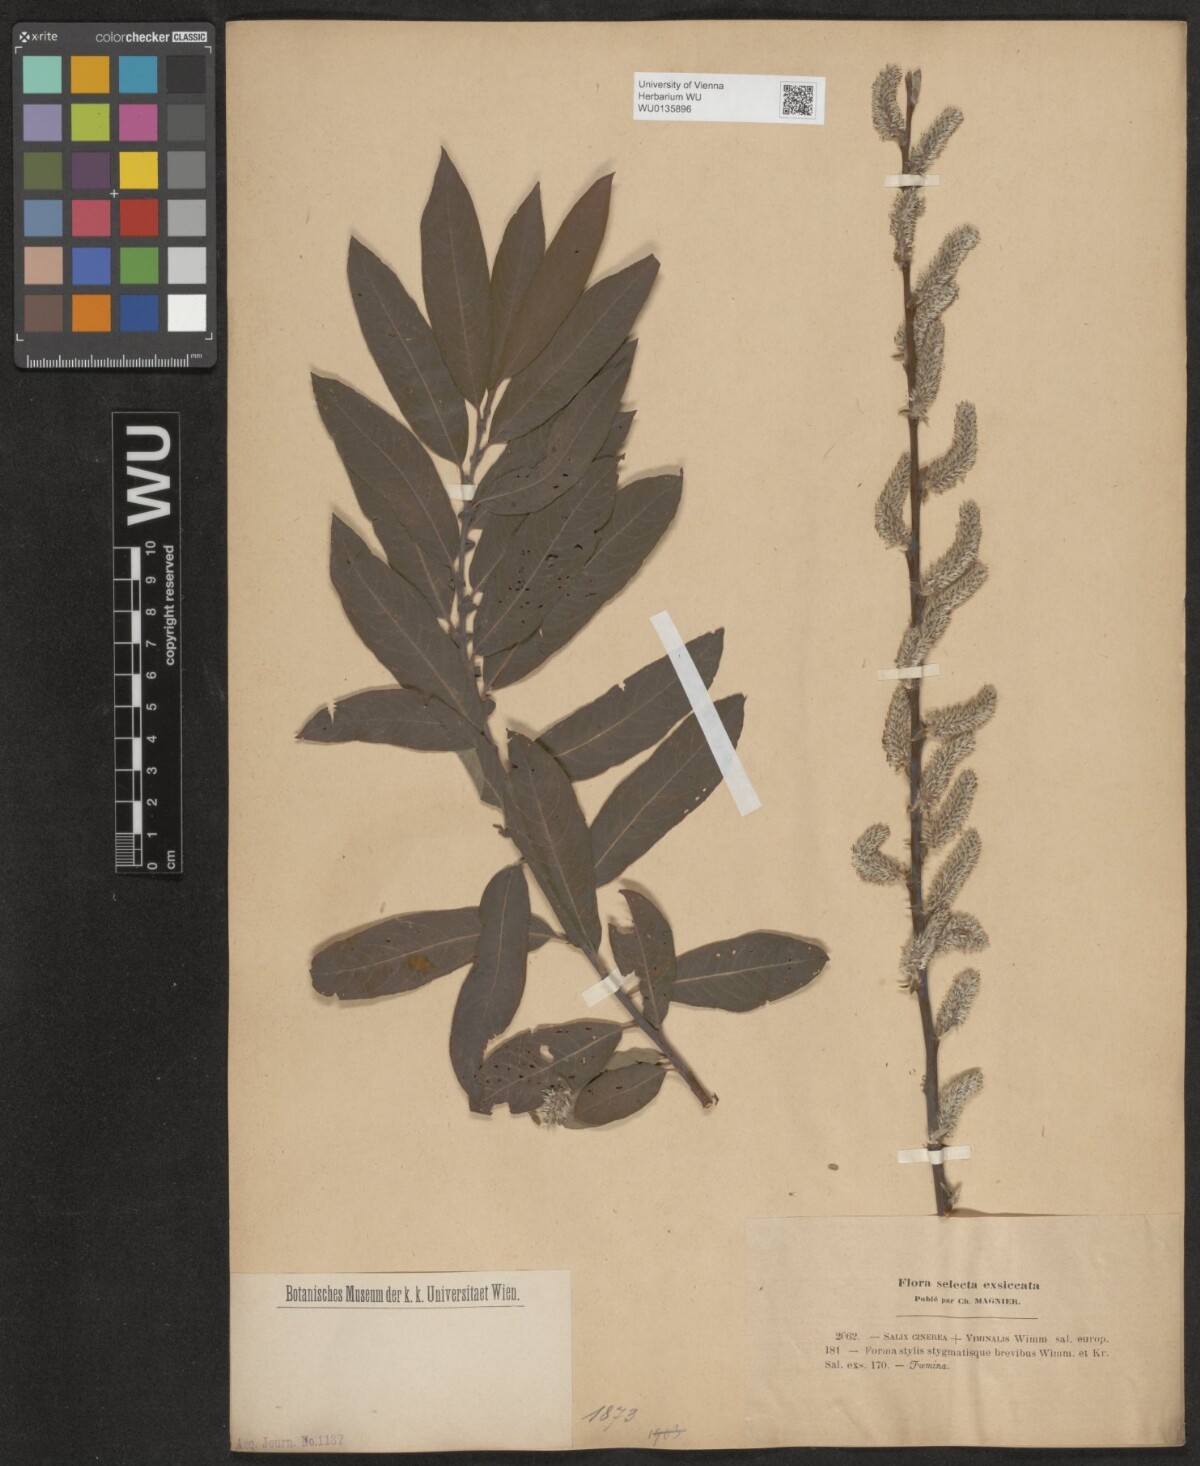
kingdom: Plantae
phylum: Tracheophyta
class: Magnoliopsida
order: Malpighiales
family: Salicaceae
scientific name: Salicaceae
